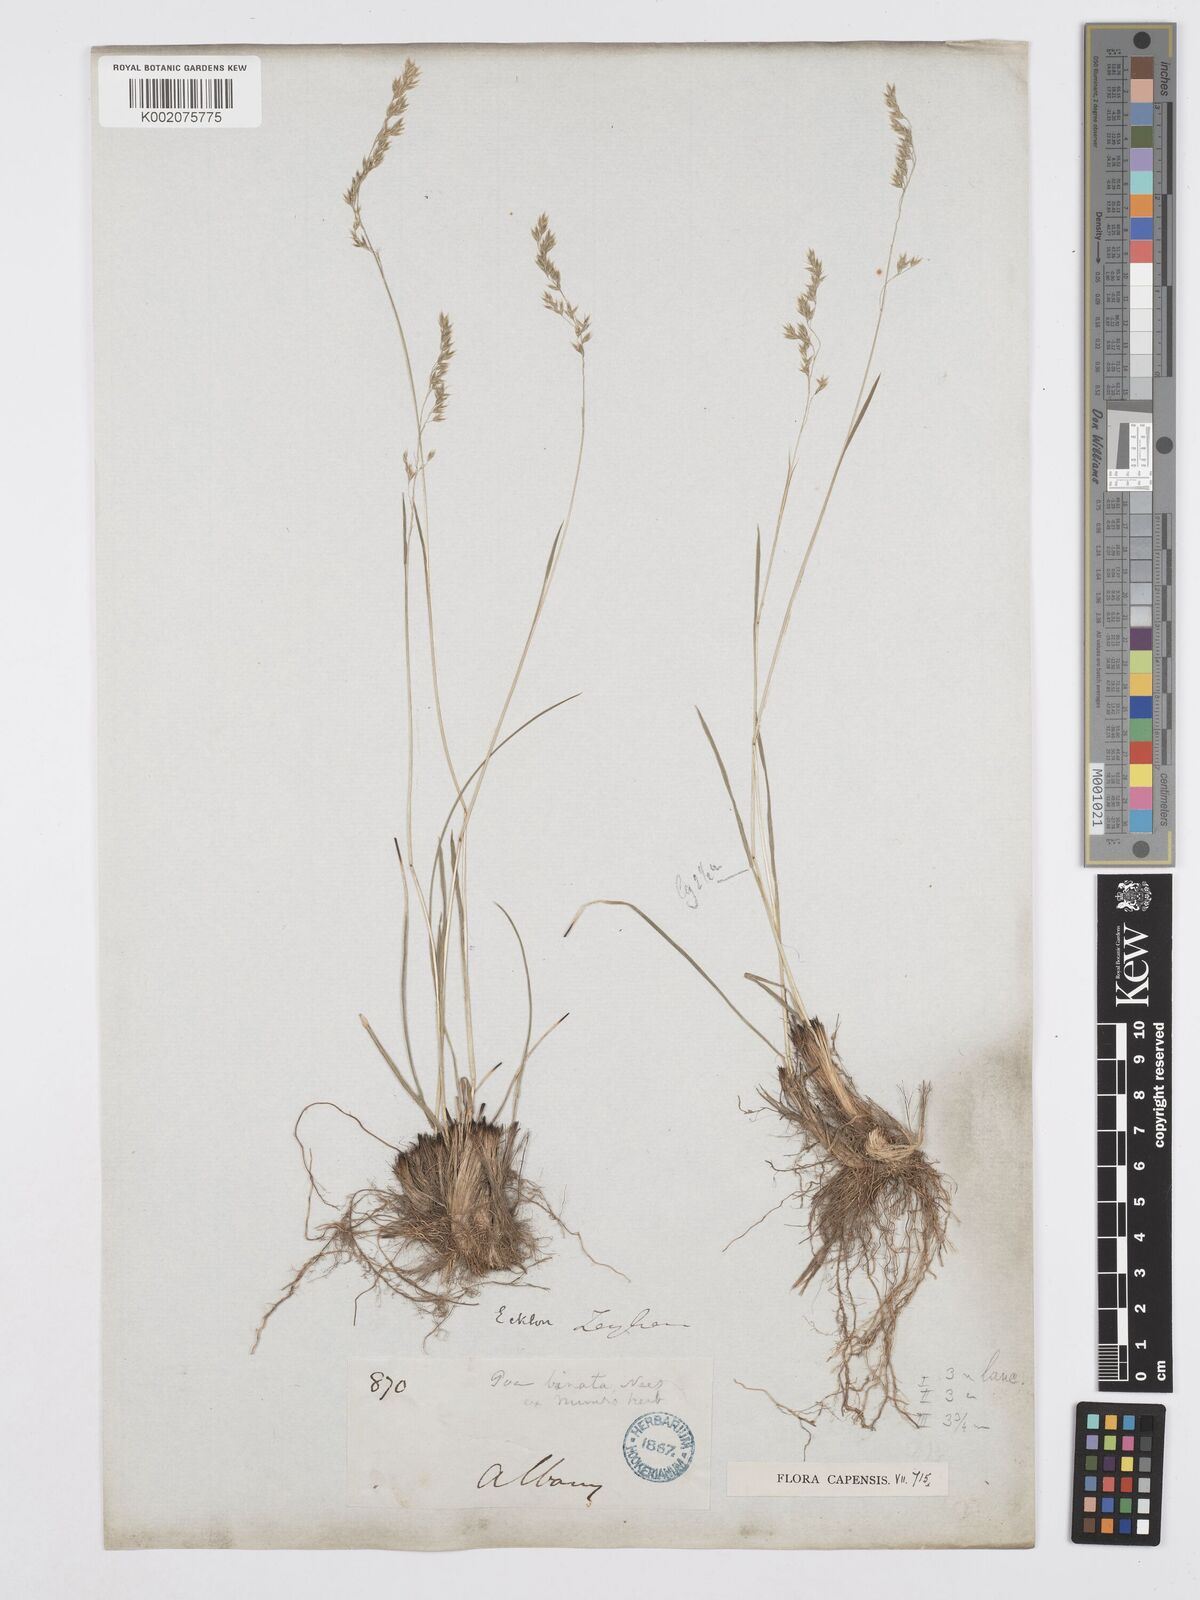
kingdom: Plantae
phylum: Tracheophyta
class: Liliopsida
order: Poales
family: Poaceae
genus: Poa
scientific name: Poa binata
